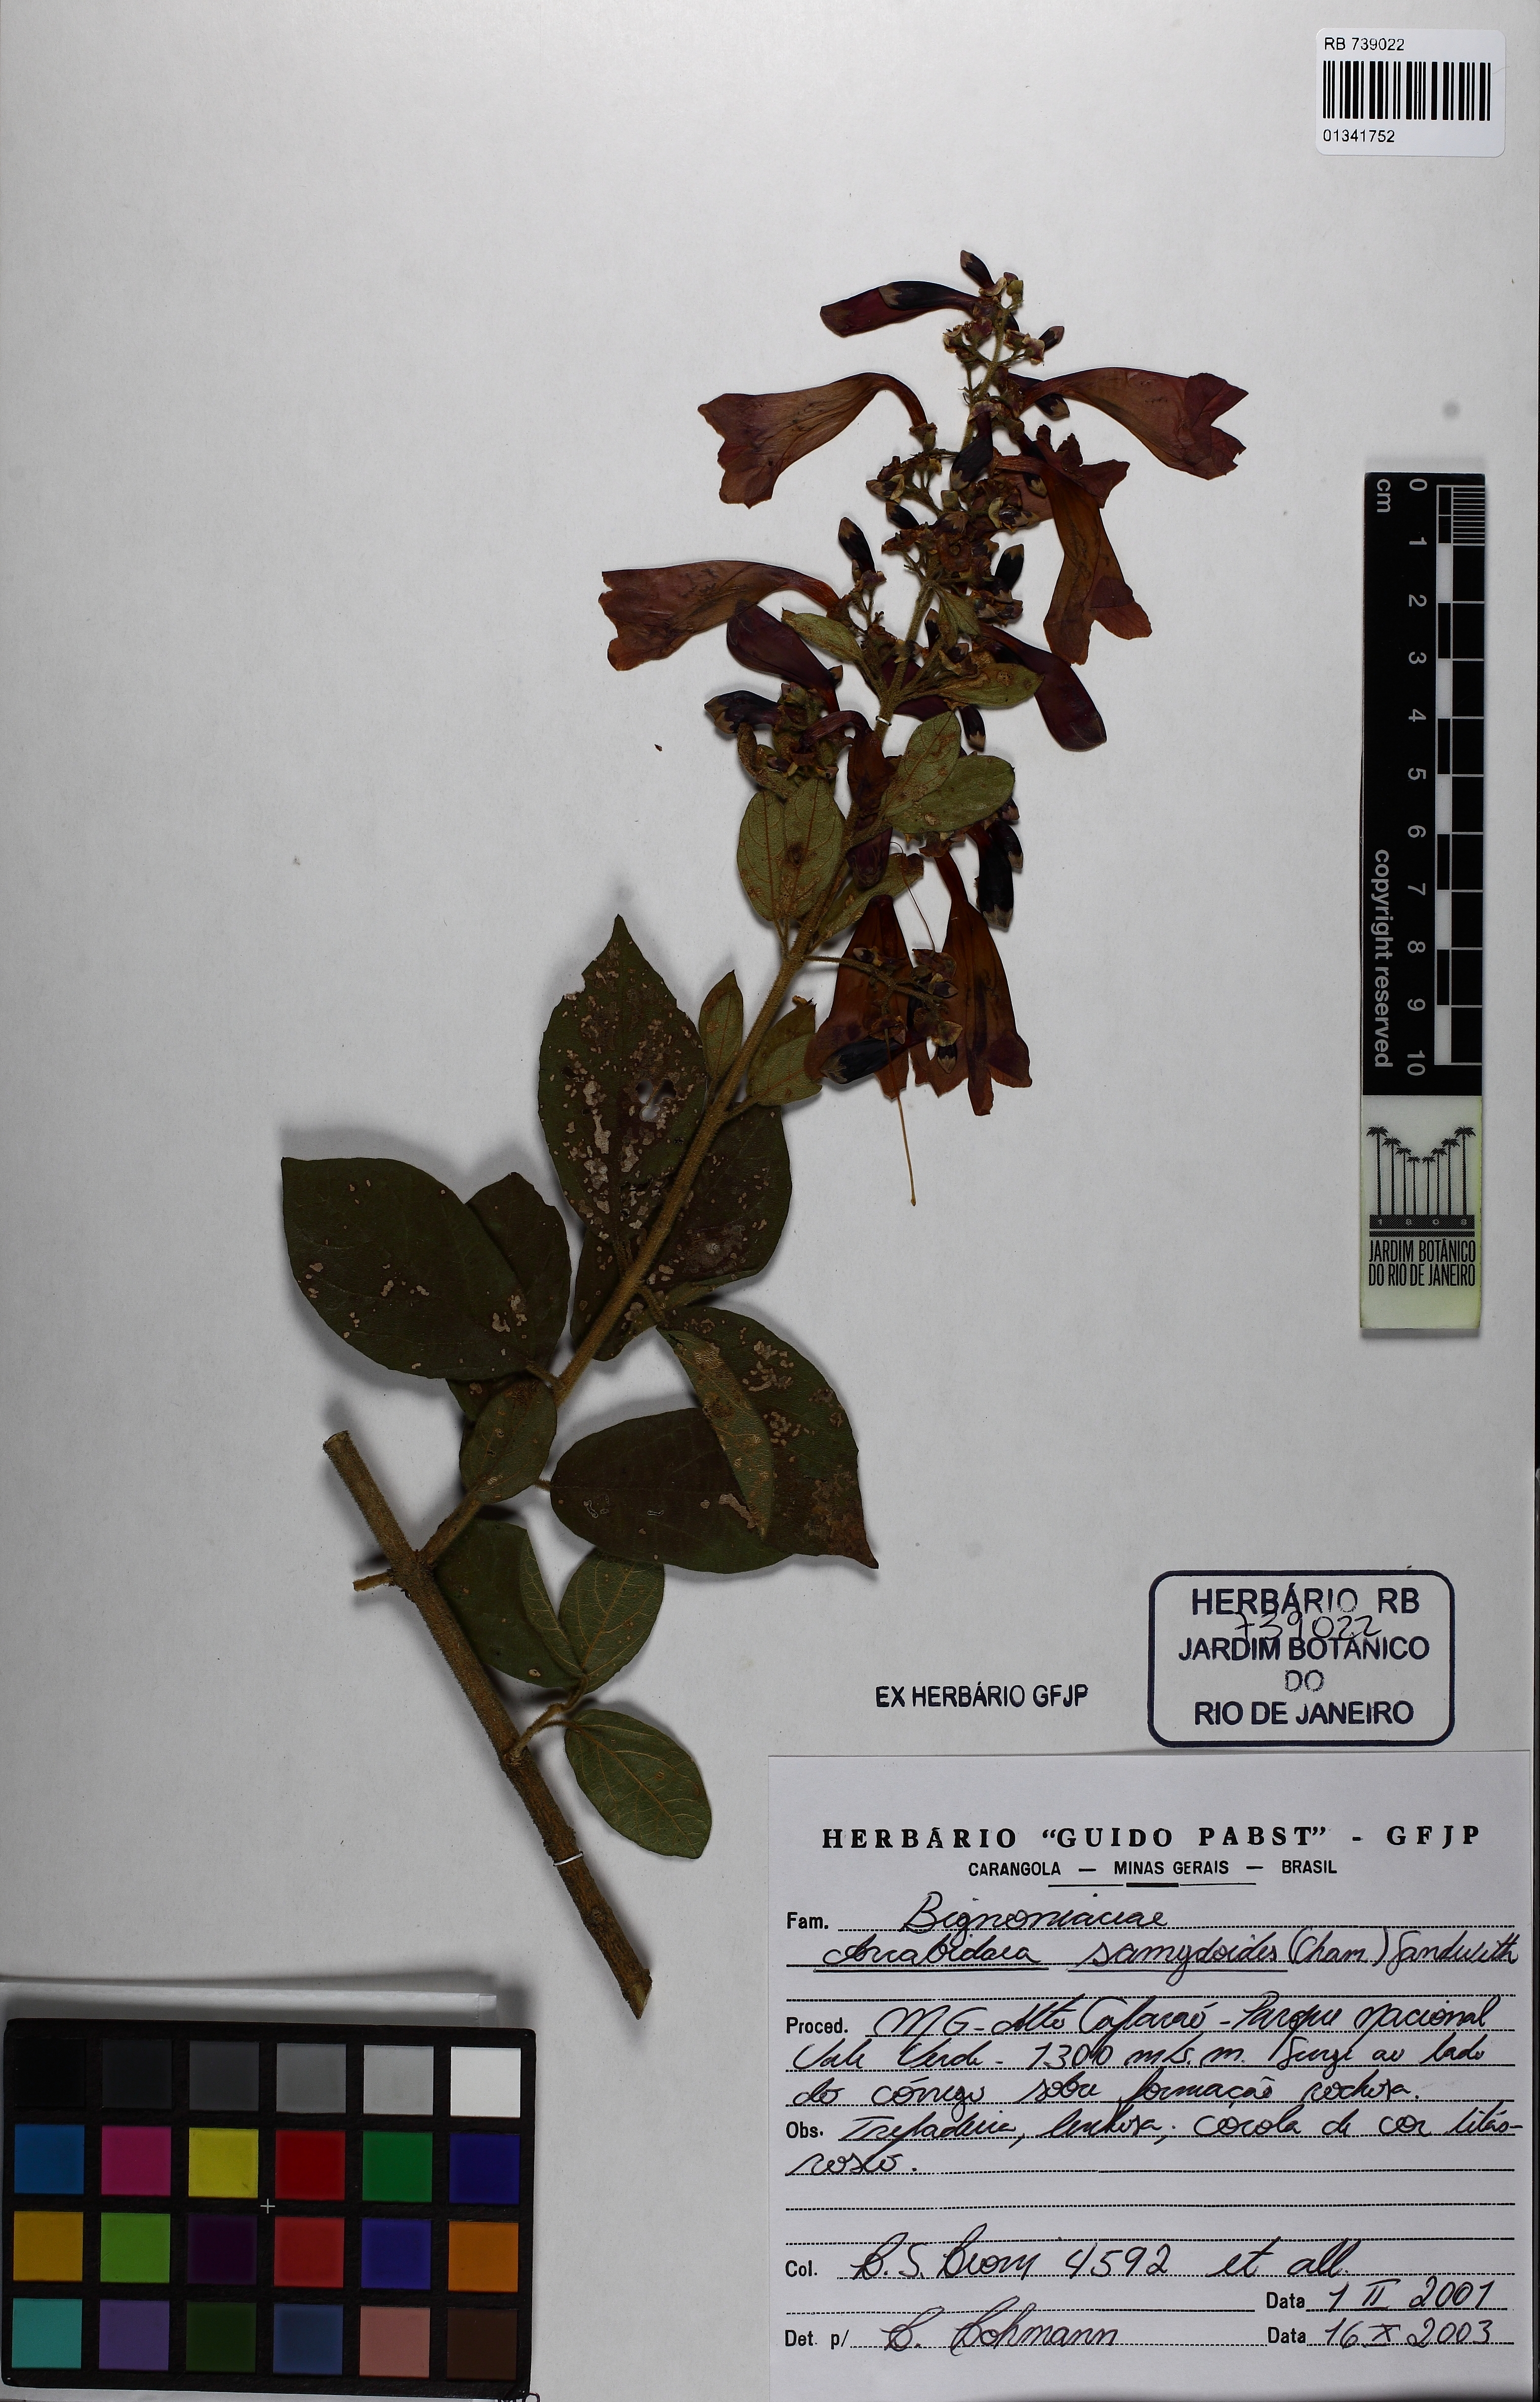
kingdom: Plantae
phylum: Tracheophyta
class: Magnoliopsida
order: Lamiales
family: Bignoniaceae
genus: Fridericia
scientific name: Fridericia samydoides
